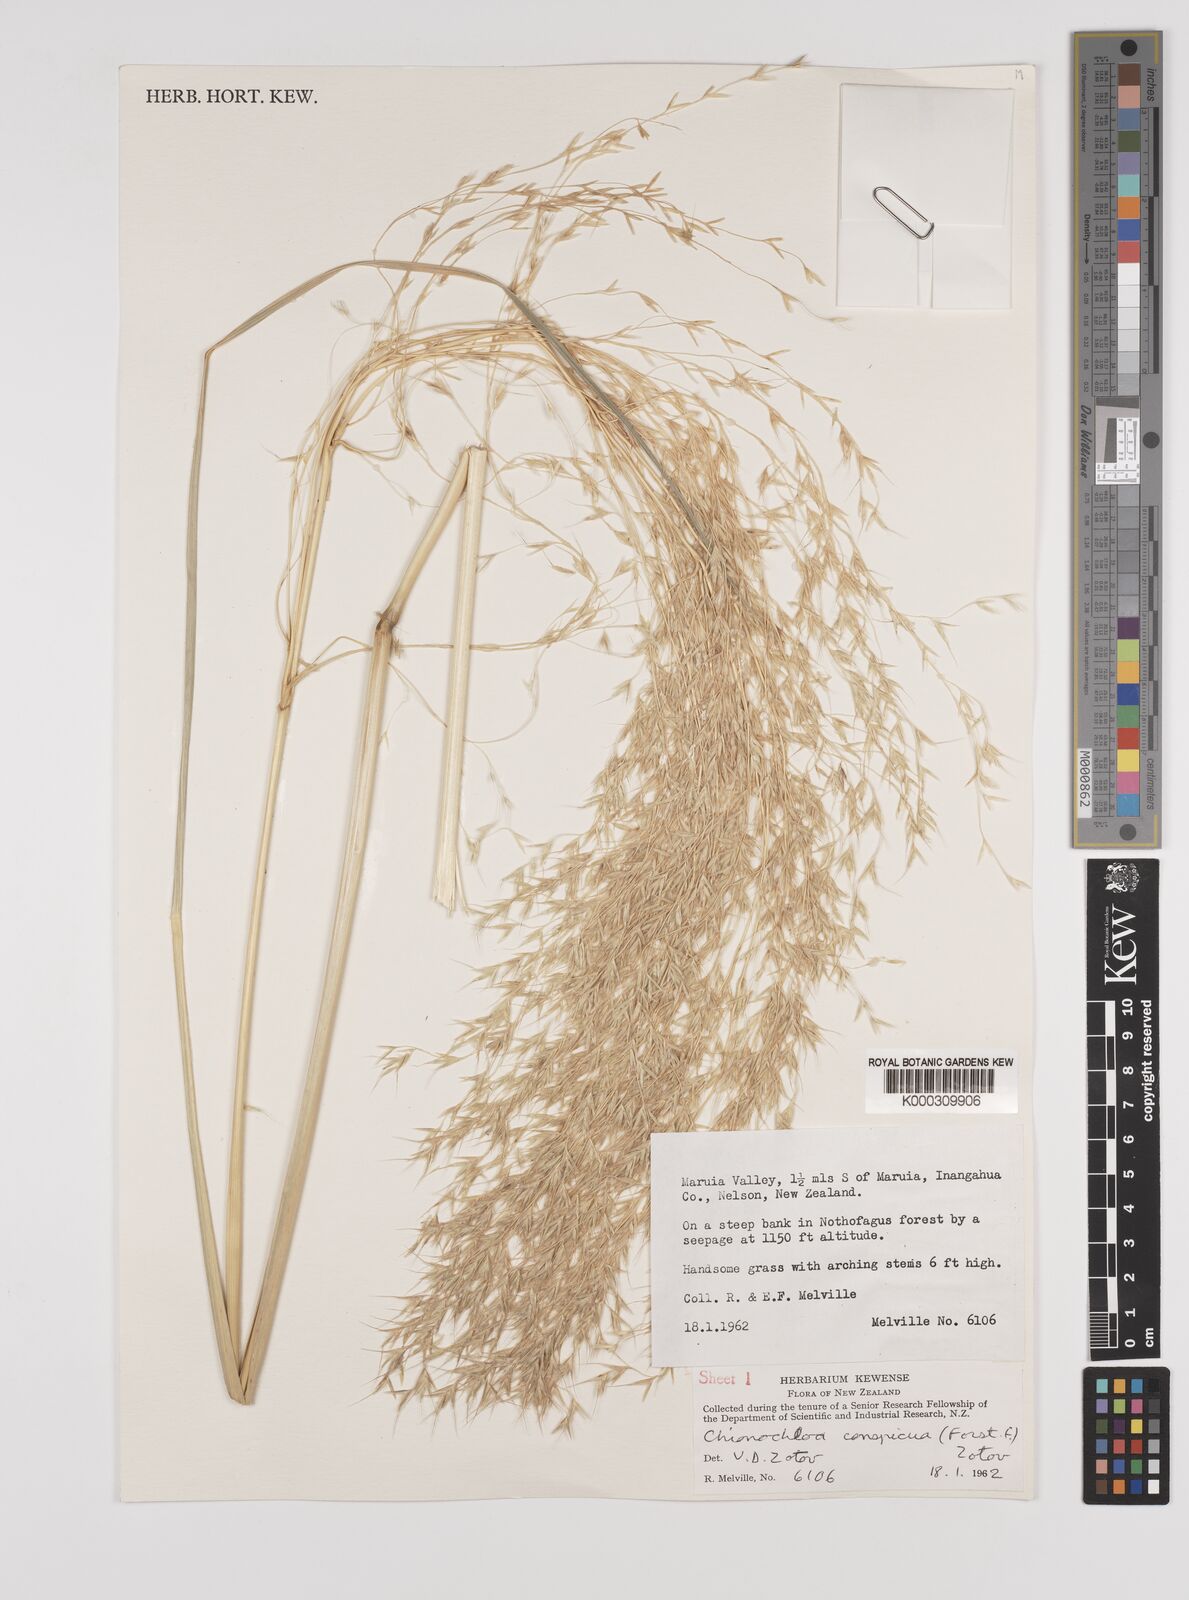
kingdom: Plantae
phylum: Tracheophyta
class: Liliopsida
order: Poales
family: Poaceae
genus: Chionochloa
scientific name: Chionochloa conspicua
